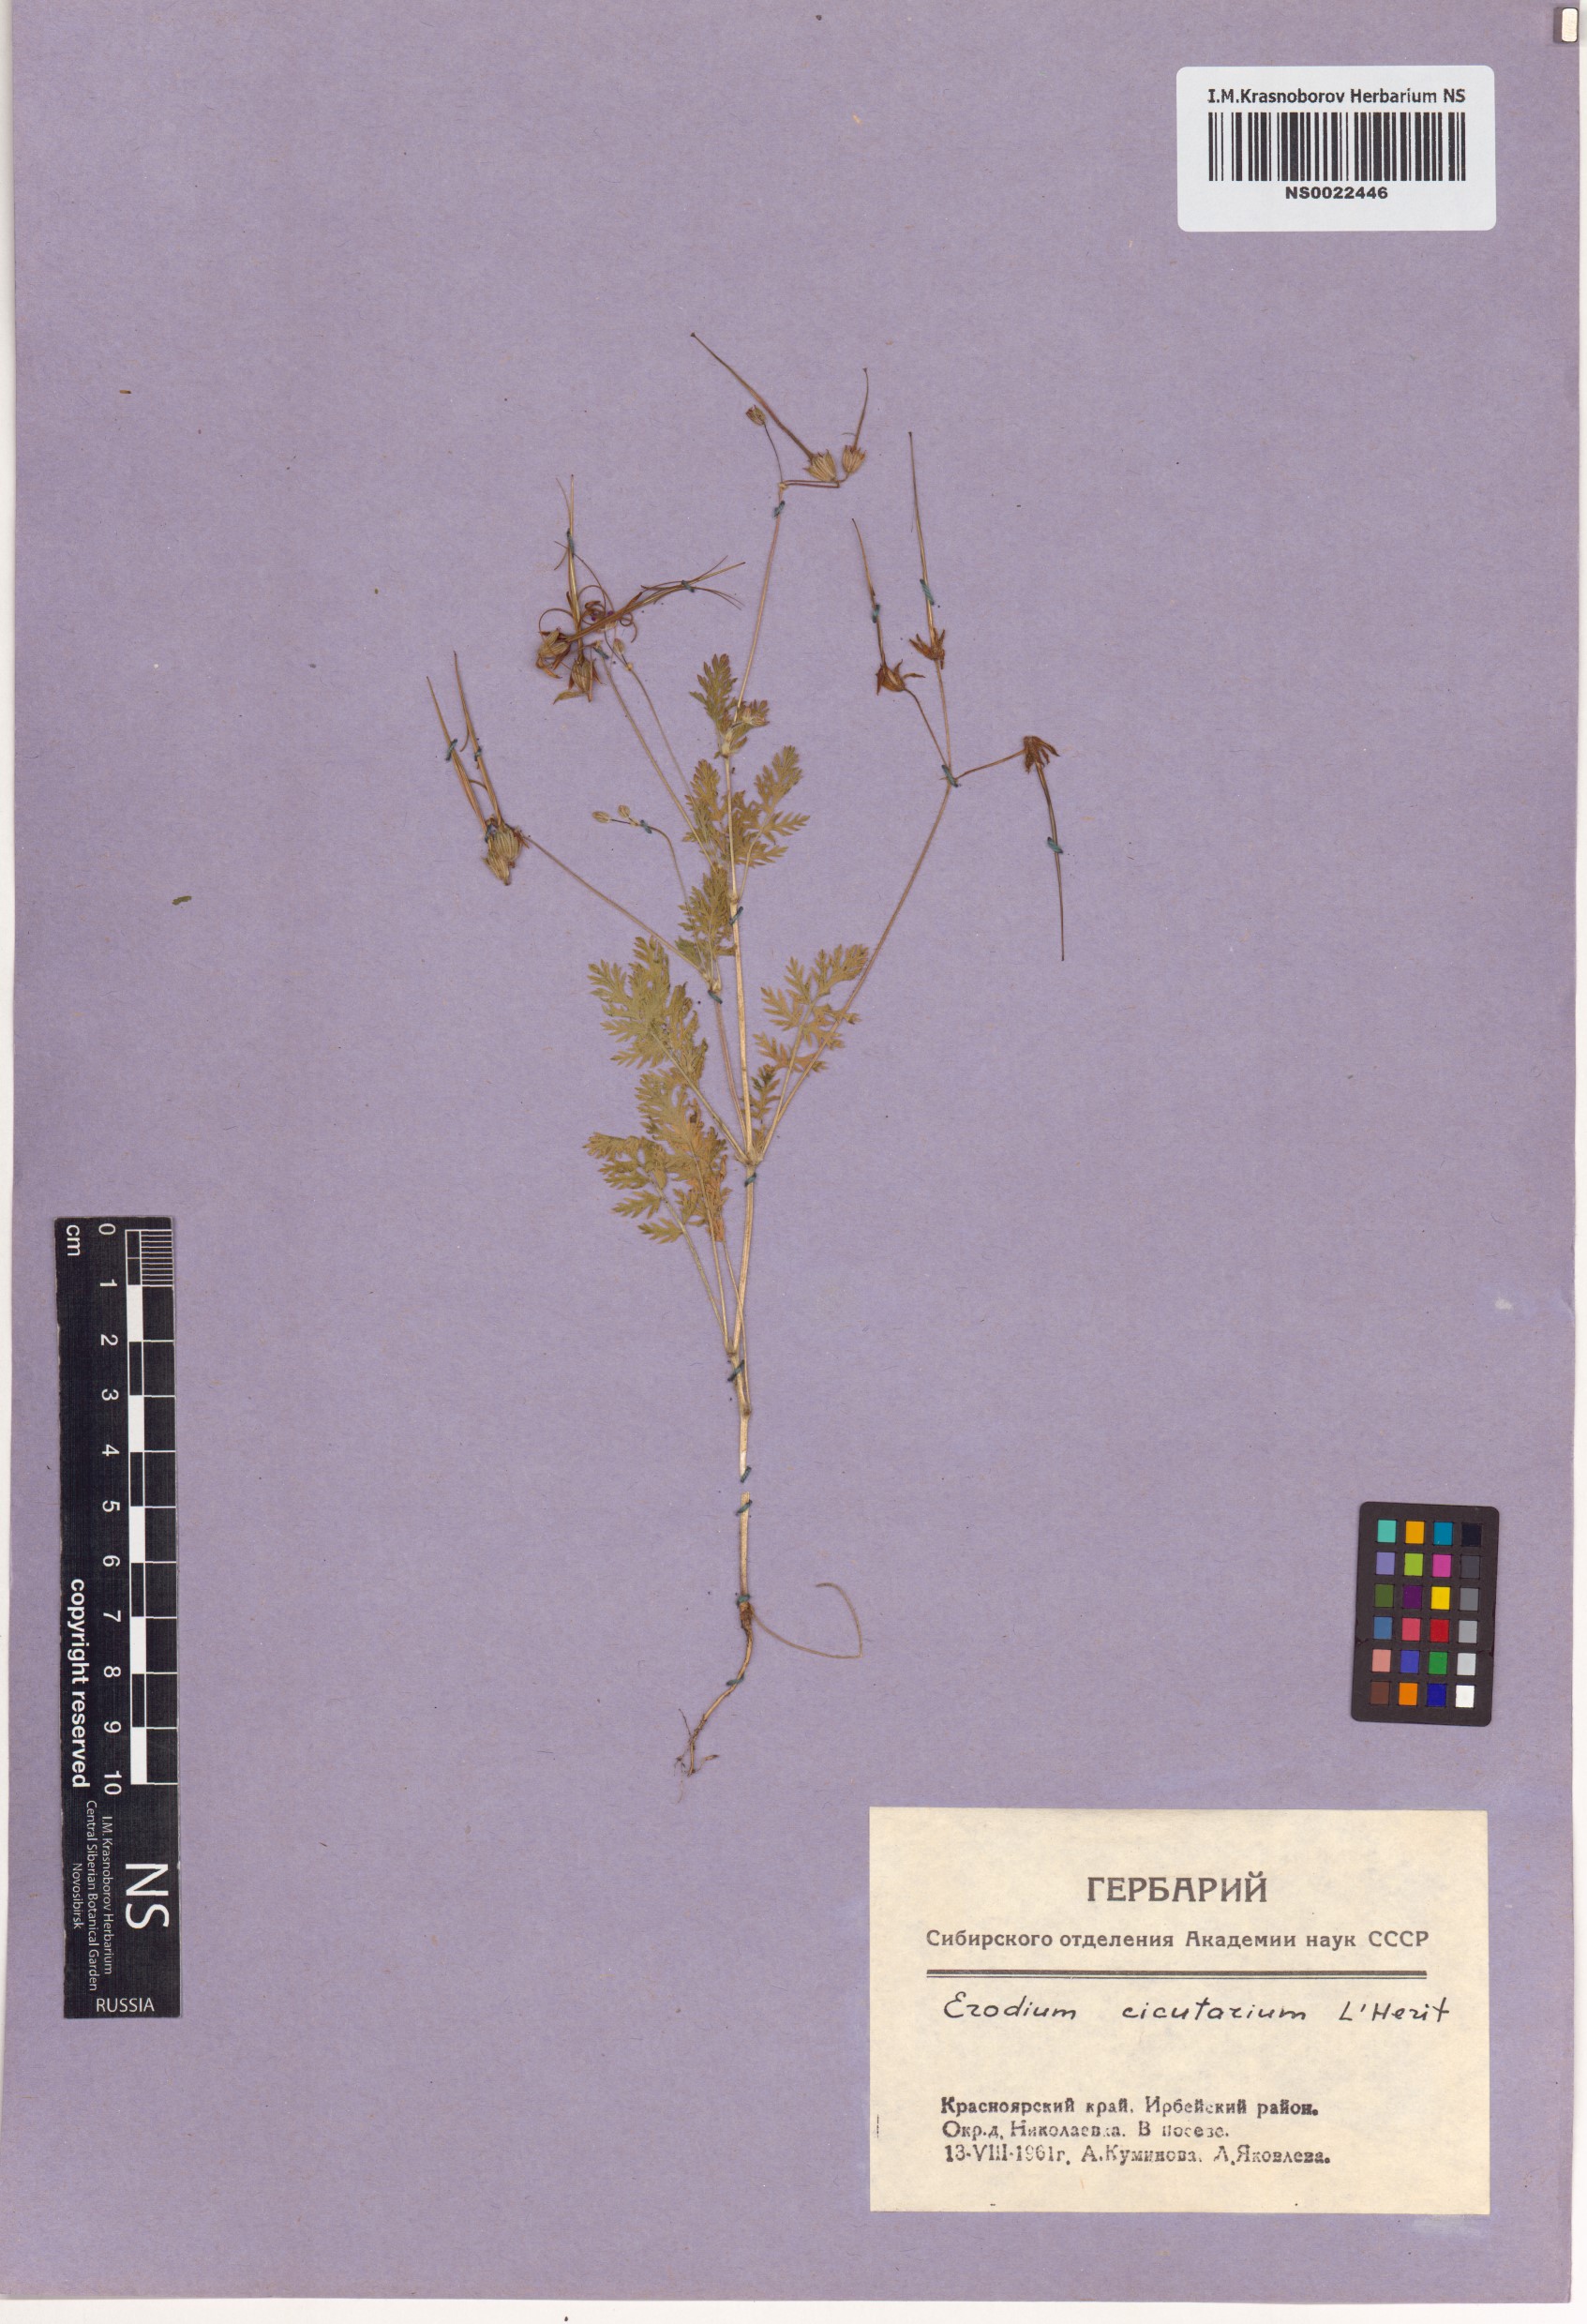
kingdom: Plantae
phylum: Tracheophyta
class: Magnoliopsida
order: Geraniales
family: Geraniaceae
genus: Erodium
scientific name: Erodium cicutarium
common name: Common stork's-bill
